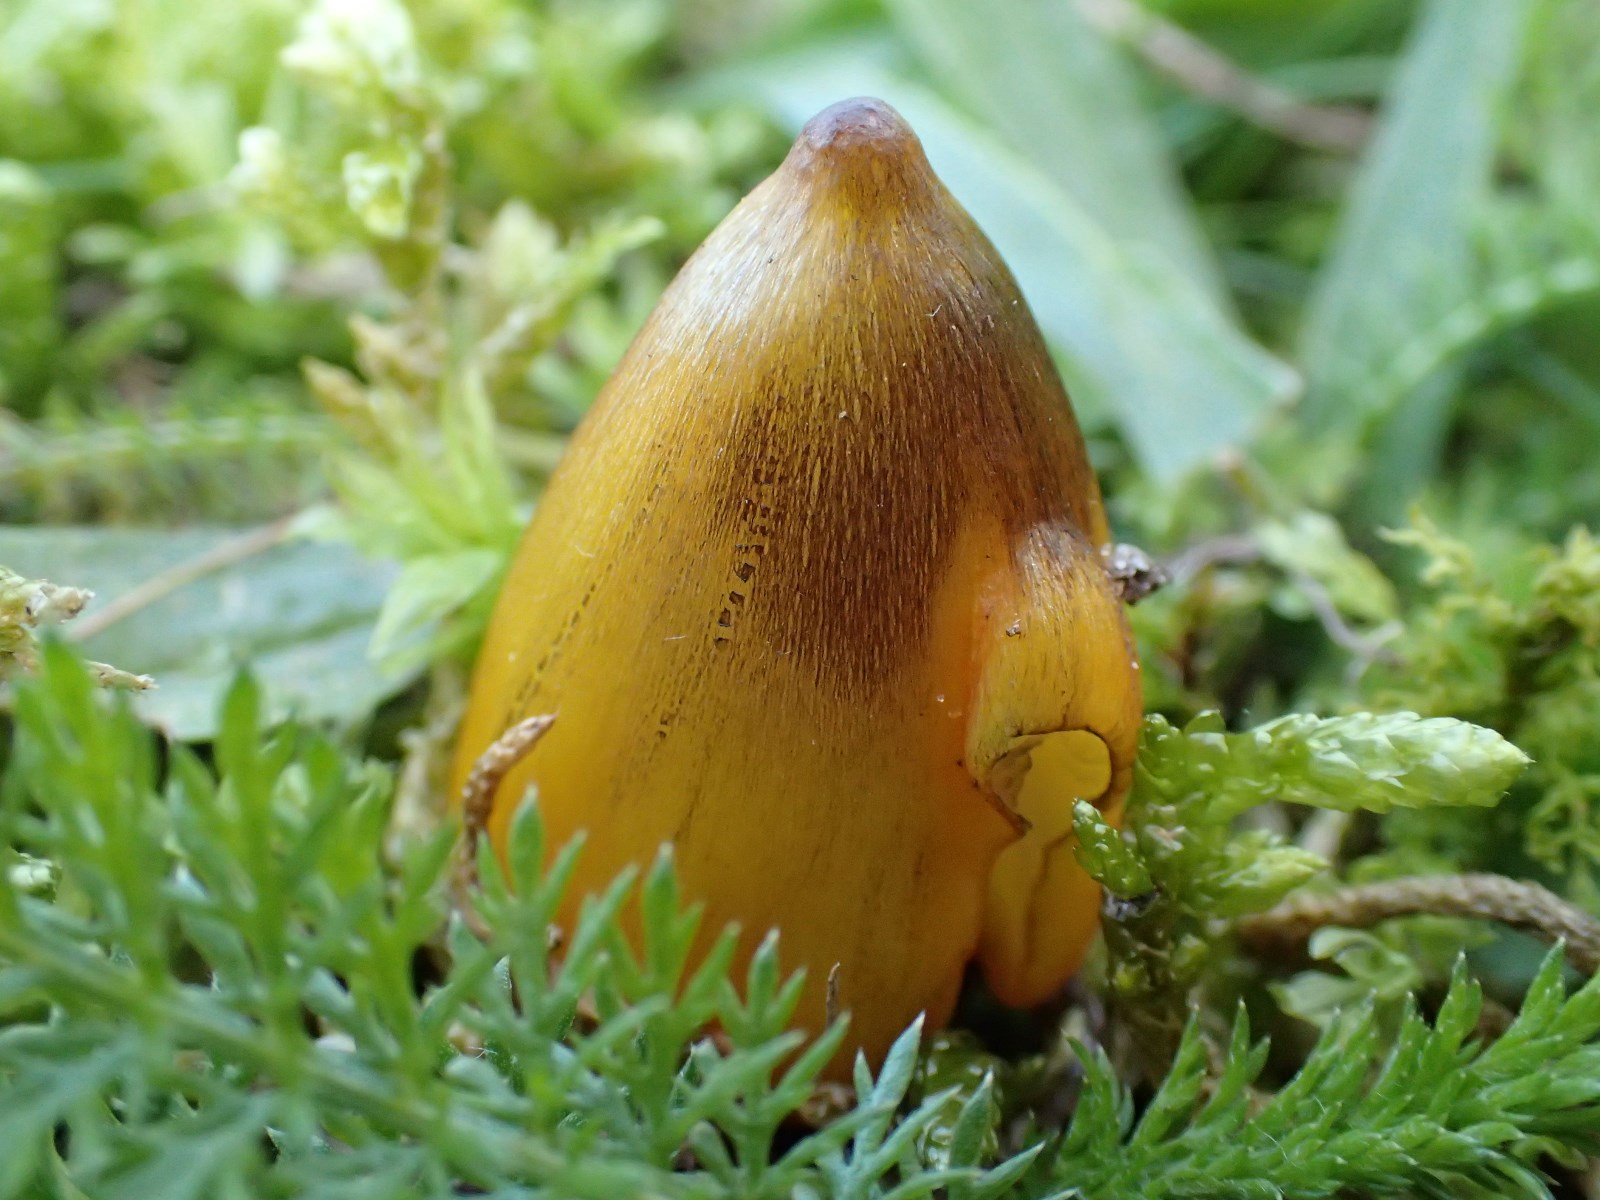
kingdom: Fungi
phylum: Basidiomycota
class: Agaricomycetes
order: Agaricales
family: Hygrophoraceae
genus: Hygrocybe
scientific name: Hygrocybe conica
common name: kegle-vokshat
